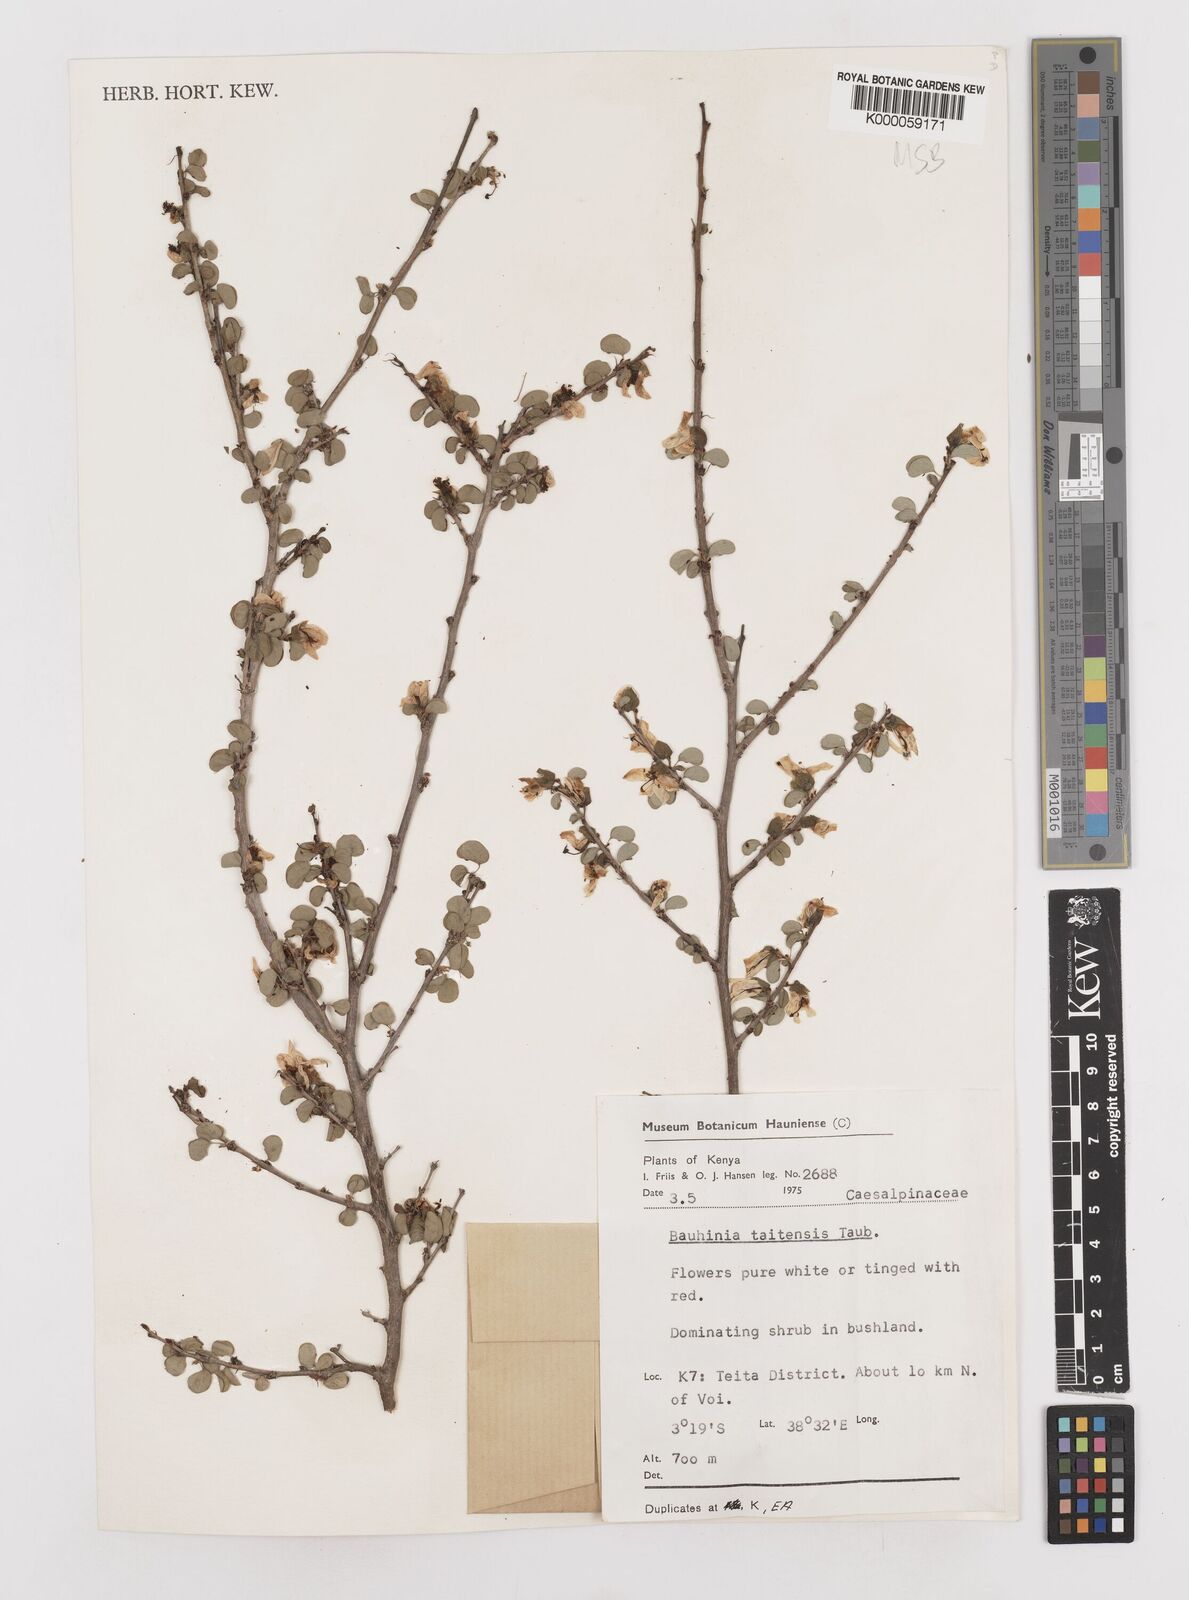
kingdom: Plantae
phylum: Tracheophyta
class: Magnoliopsida
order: Fabales
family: Fabaceae
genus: Bauhinia
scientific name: Bauhinia taitensis
